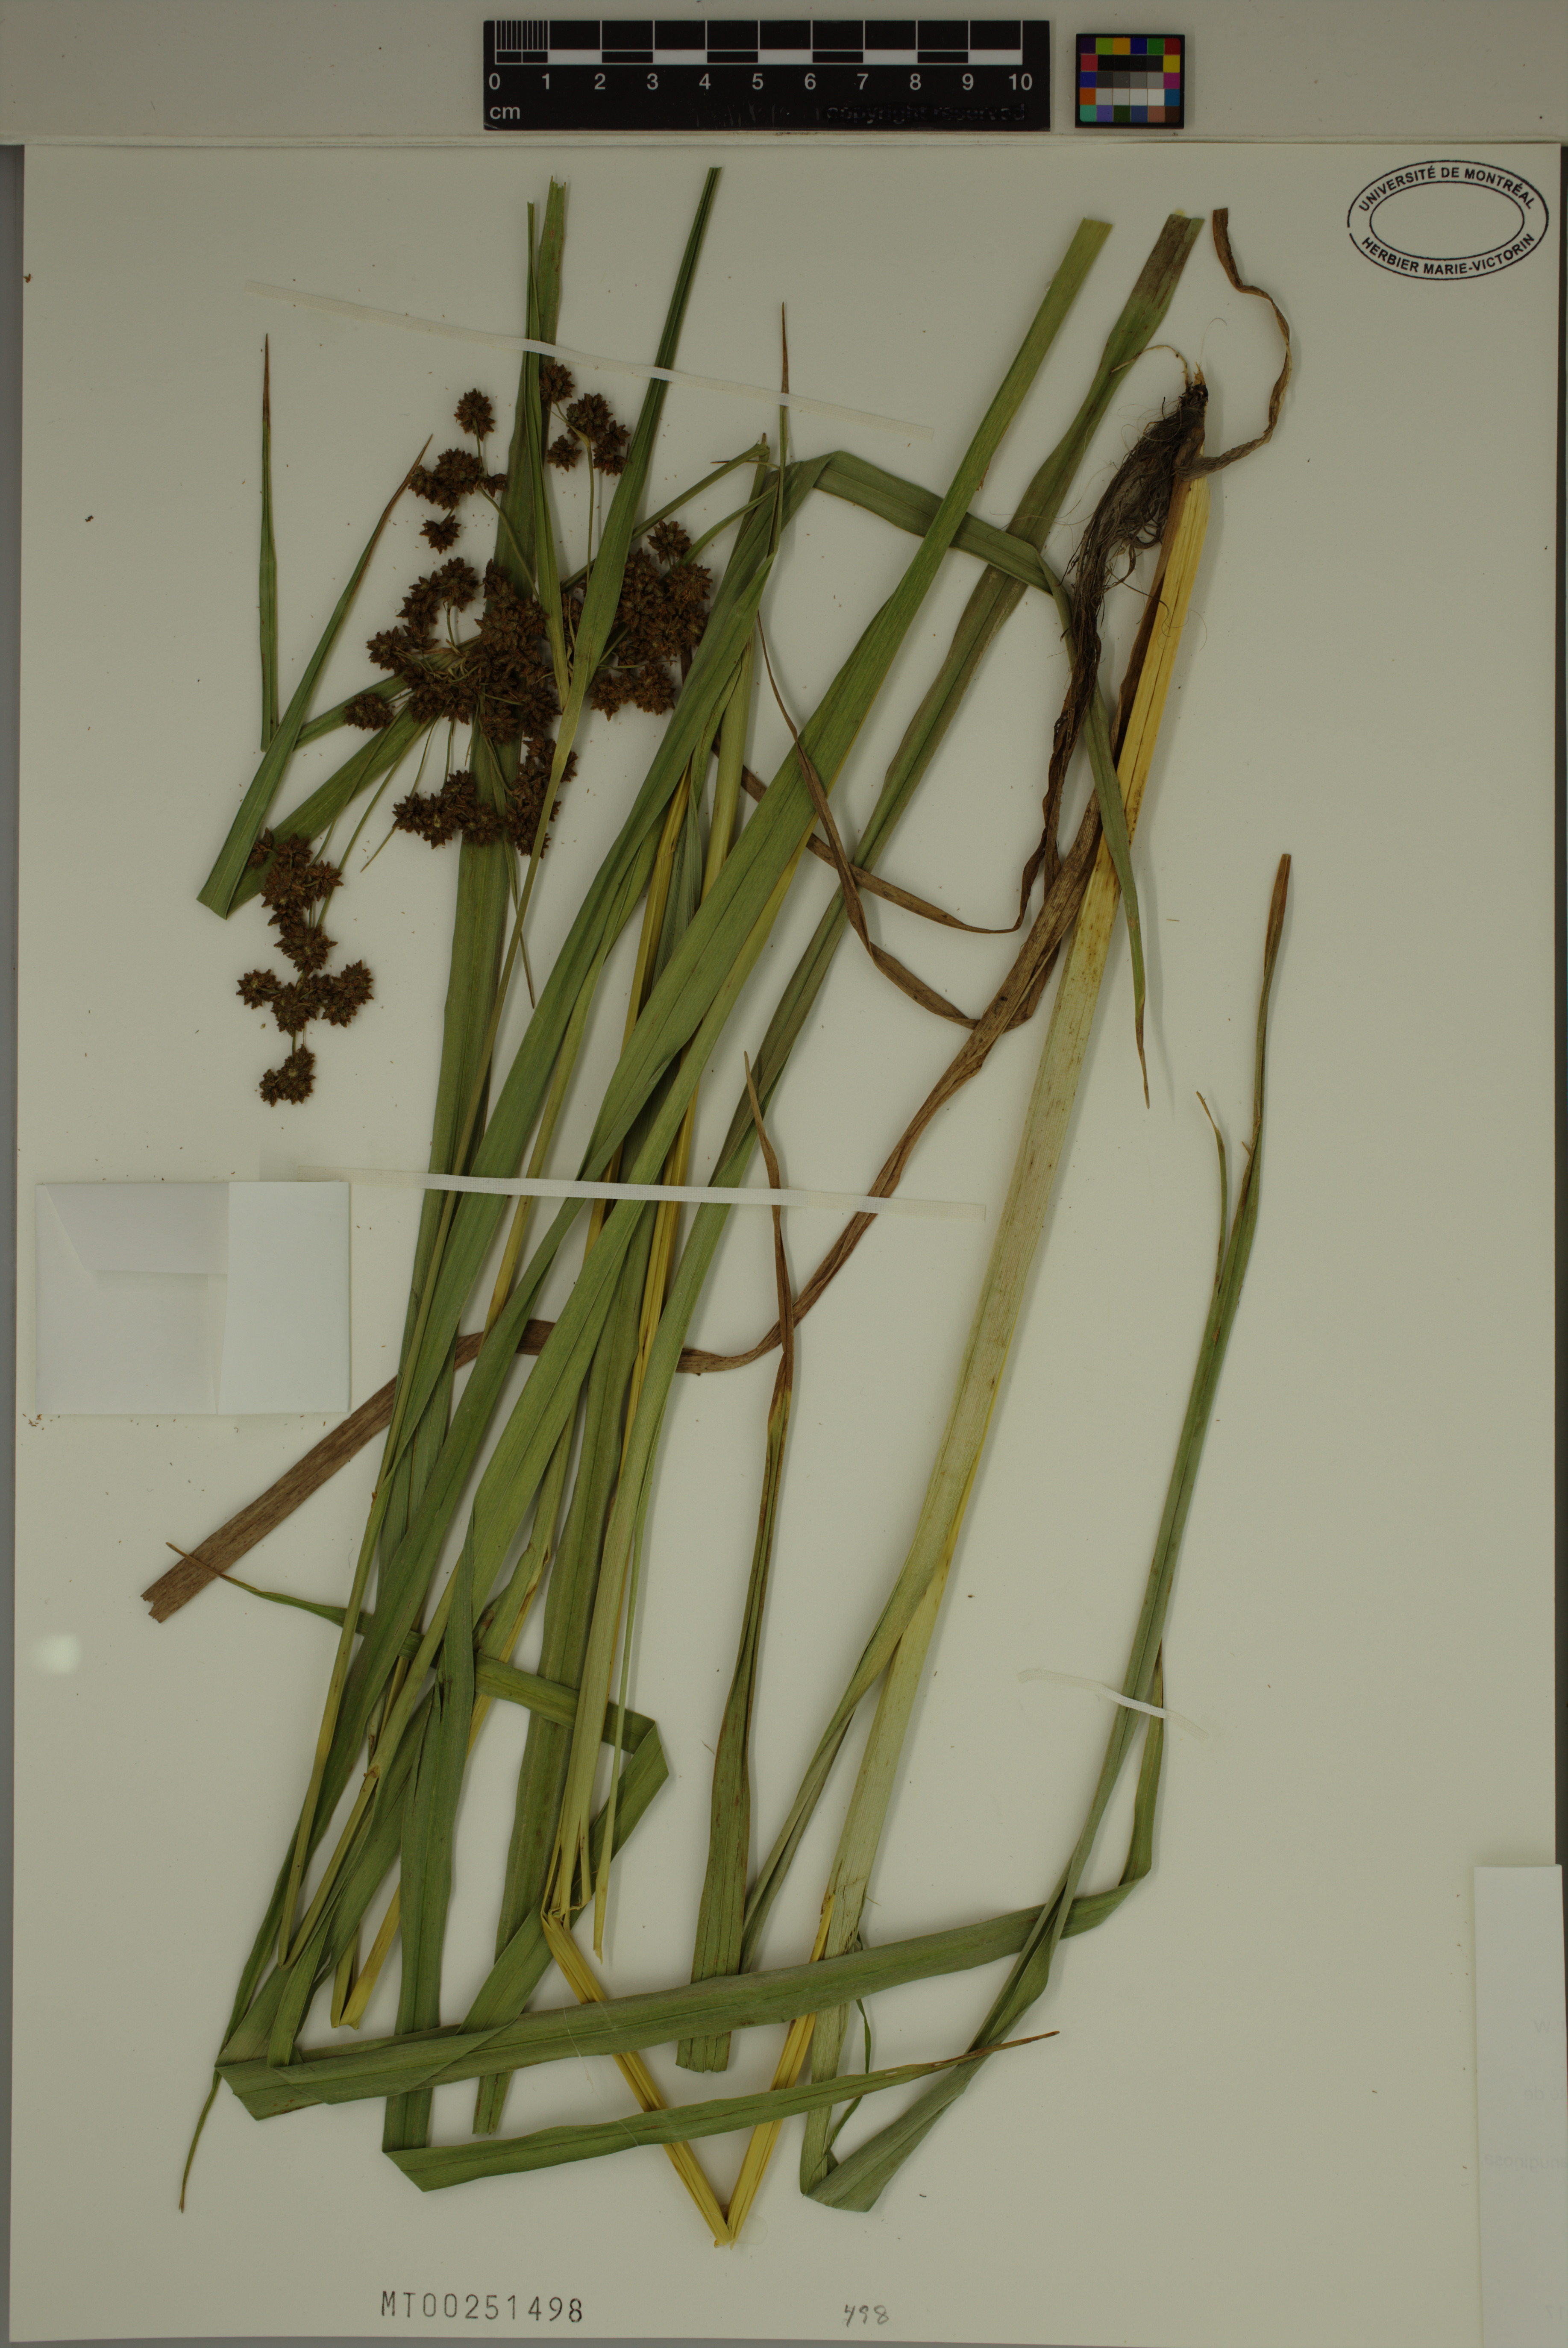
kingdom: Plantae
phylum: Tracheophyta
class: Liliopsida
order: Poales
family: Cyperaceae
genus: Scirpus
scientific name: Scirpus atrovirens
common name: Black bulrush
